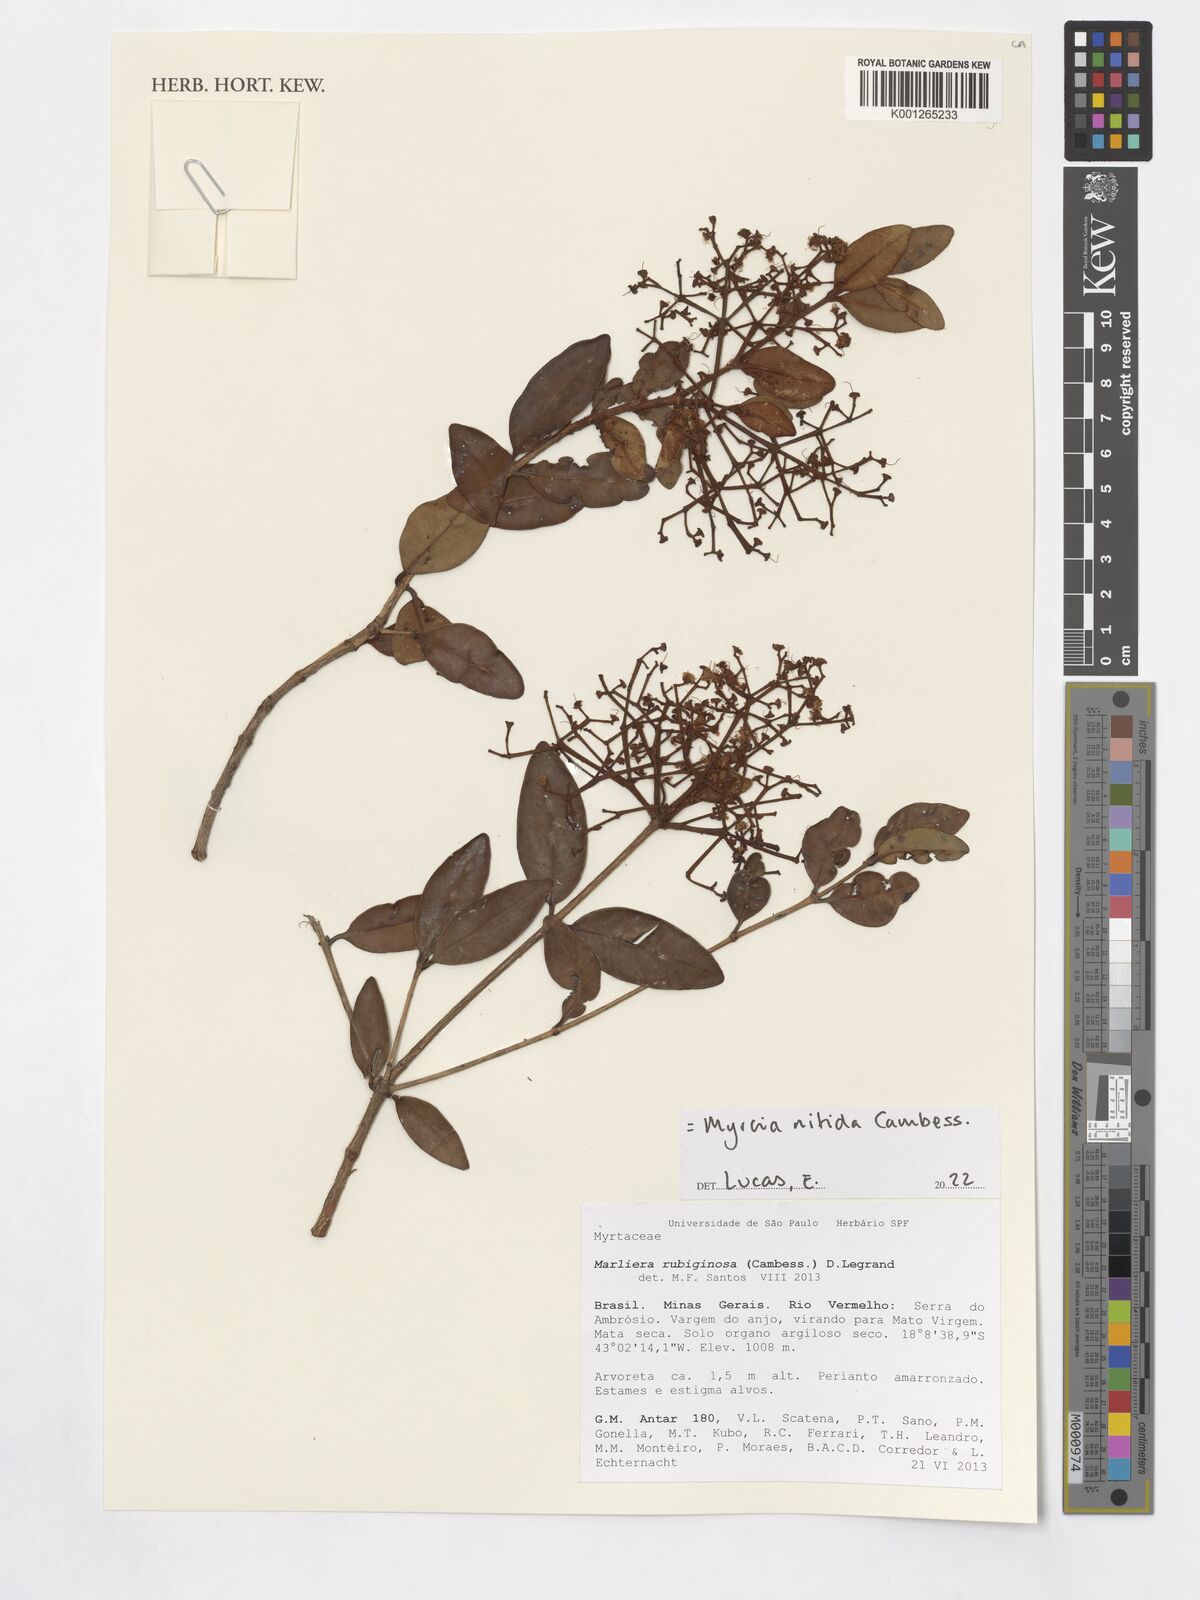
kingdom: Plantae
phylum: Tracheophyta
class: Magnoliopsida
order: Myrtales
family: Myrtaceae
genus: Myrcia
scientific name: Myrcia nitida
